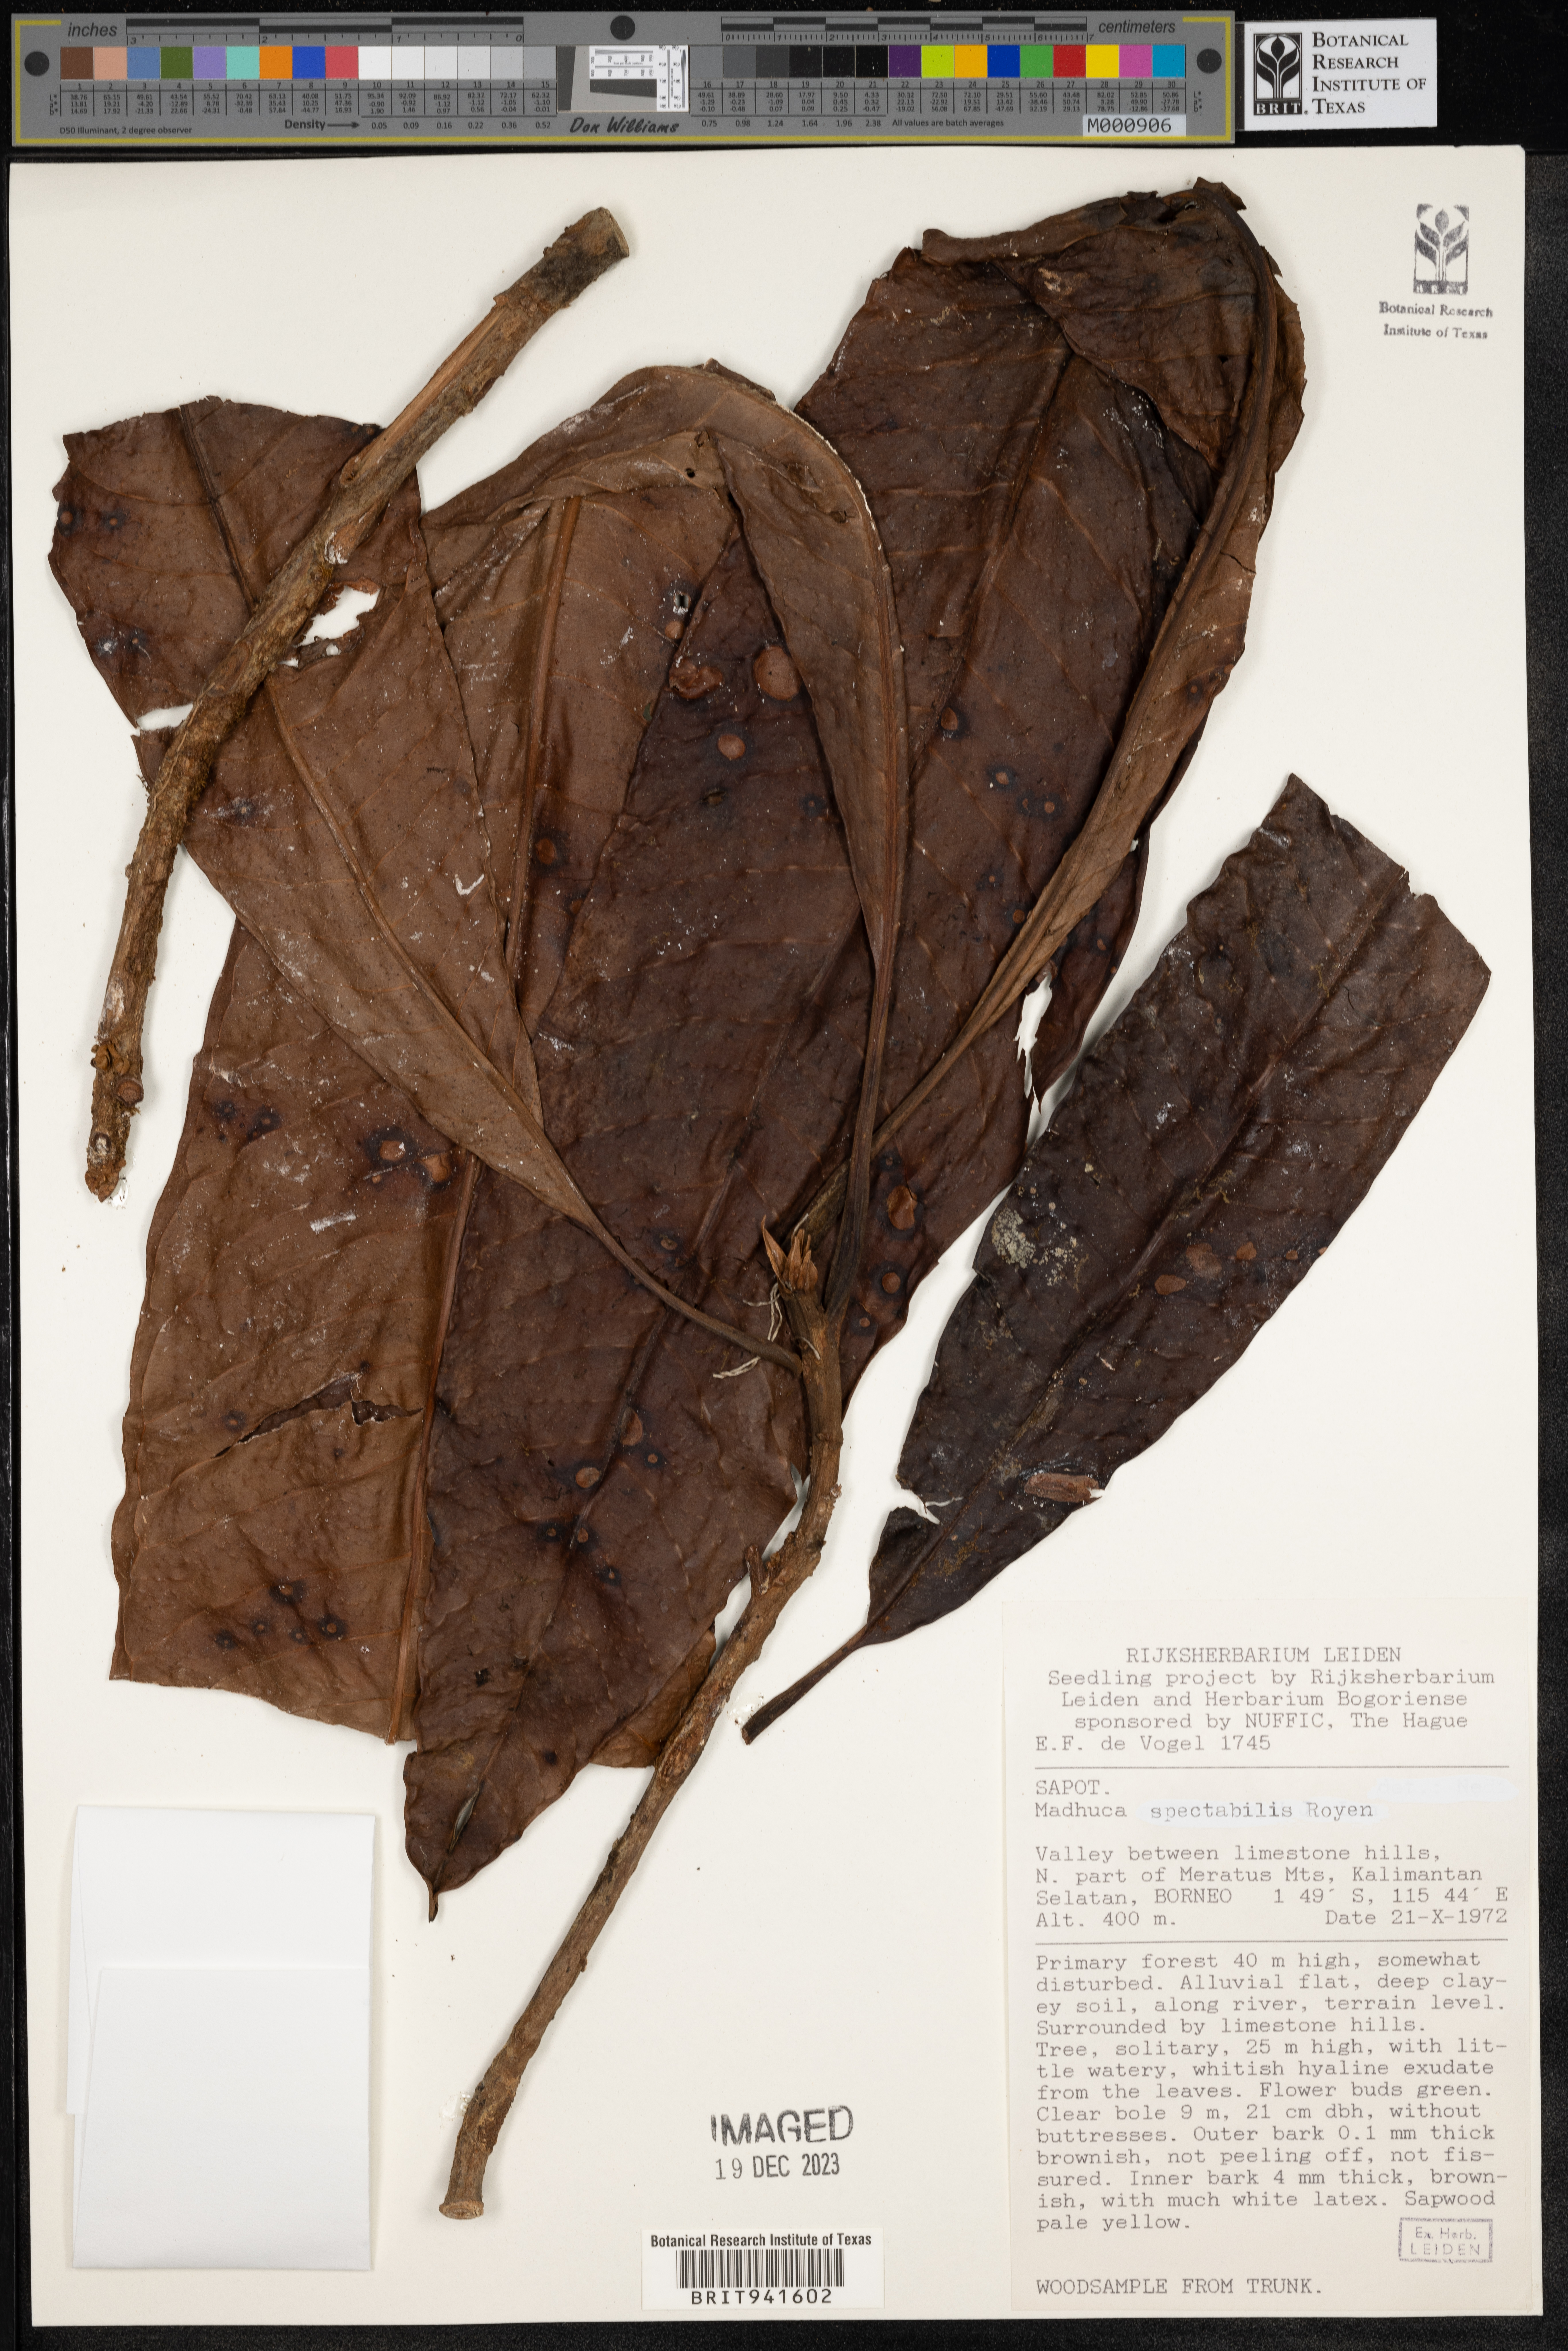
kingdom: Plantae
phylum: Tracheophyta
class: Magnoliopsida
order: Ericales
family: Sapotaceae
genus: Madhuca
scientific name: Madhuca
